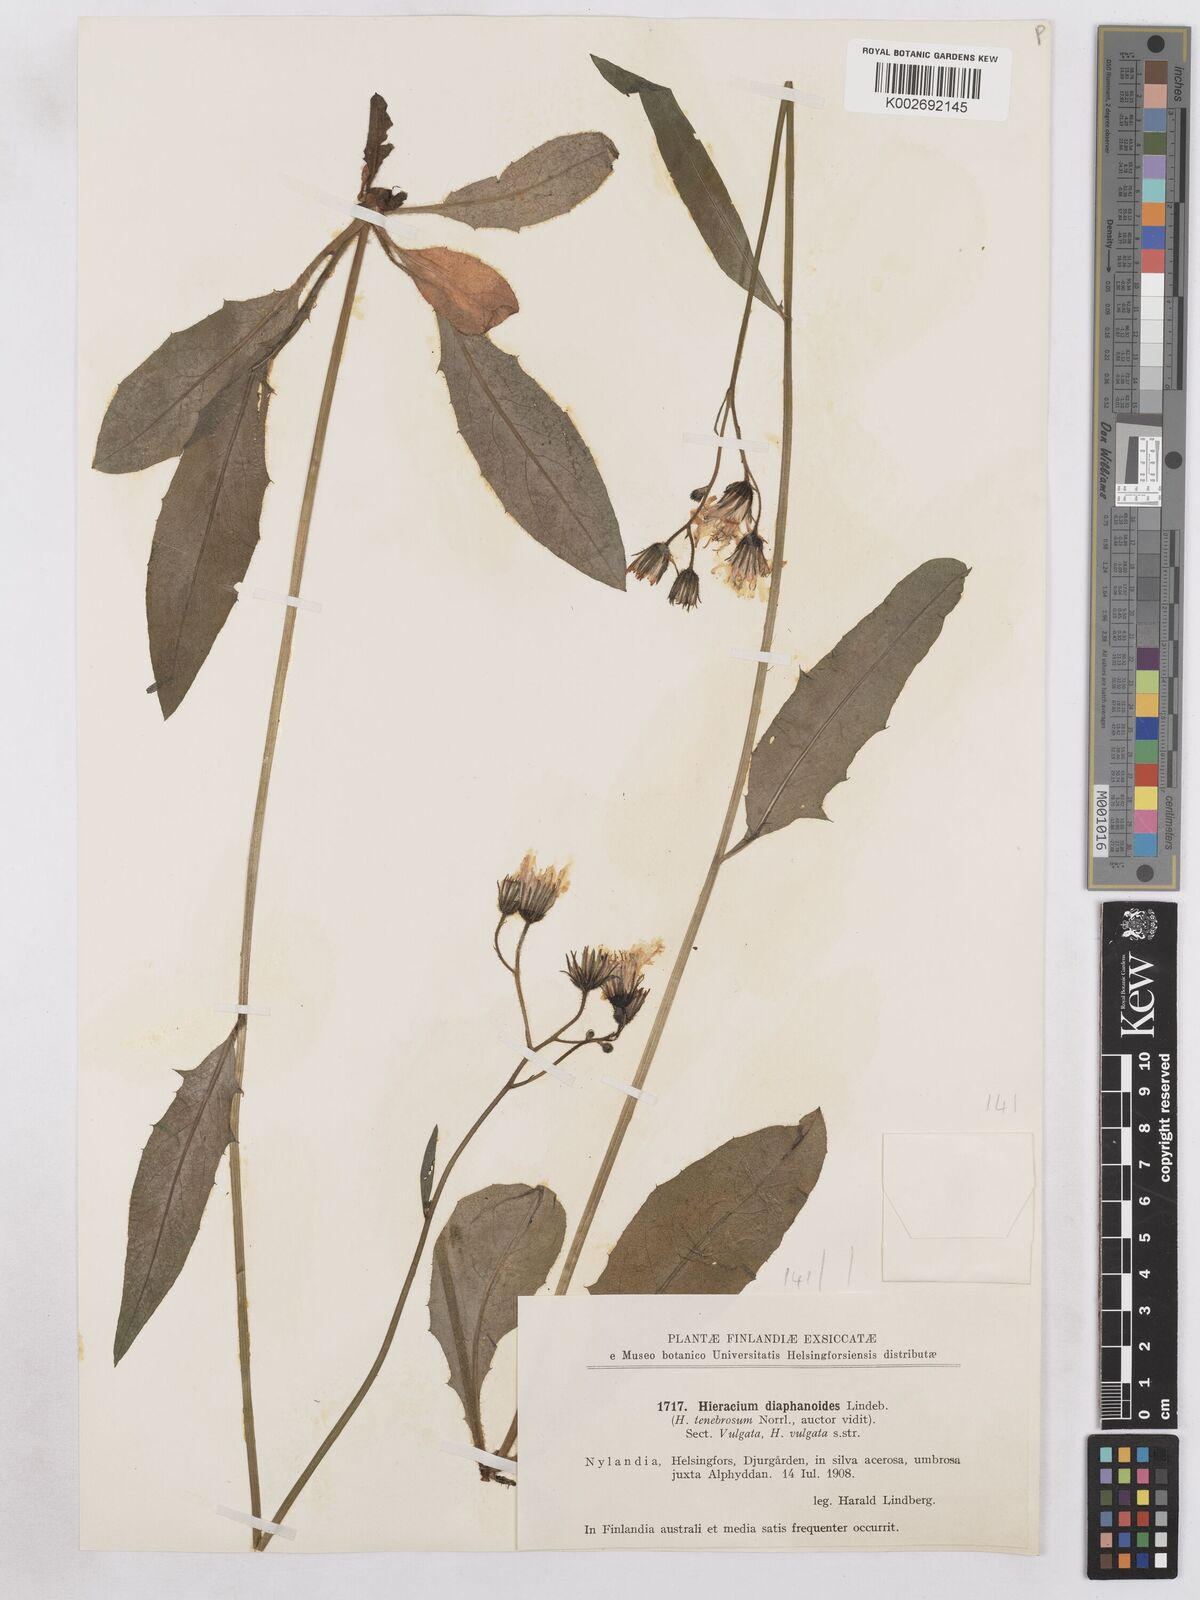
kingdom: Plantae
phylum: Tracheophyta
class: Magnoliopsida
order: Asterales
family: Asteraceae
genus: Hieracium
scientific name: Hieracium diaphanoides
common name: Fine-bracted hawkweed
